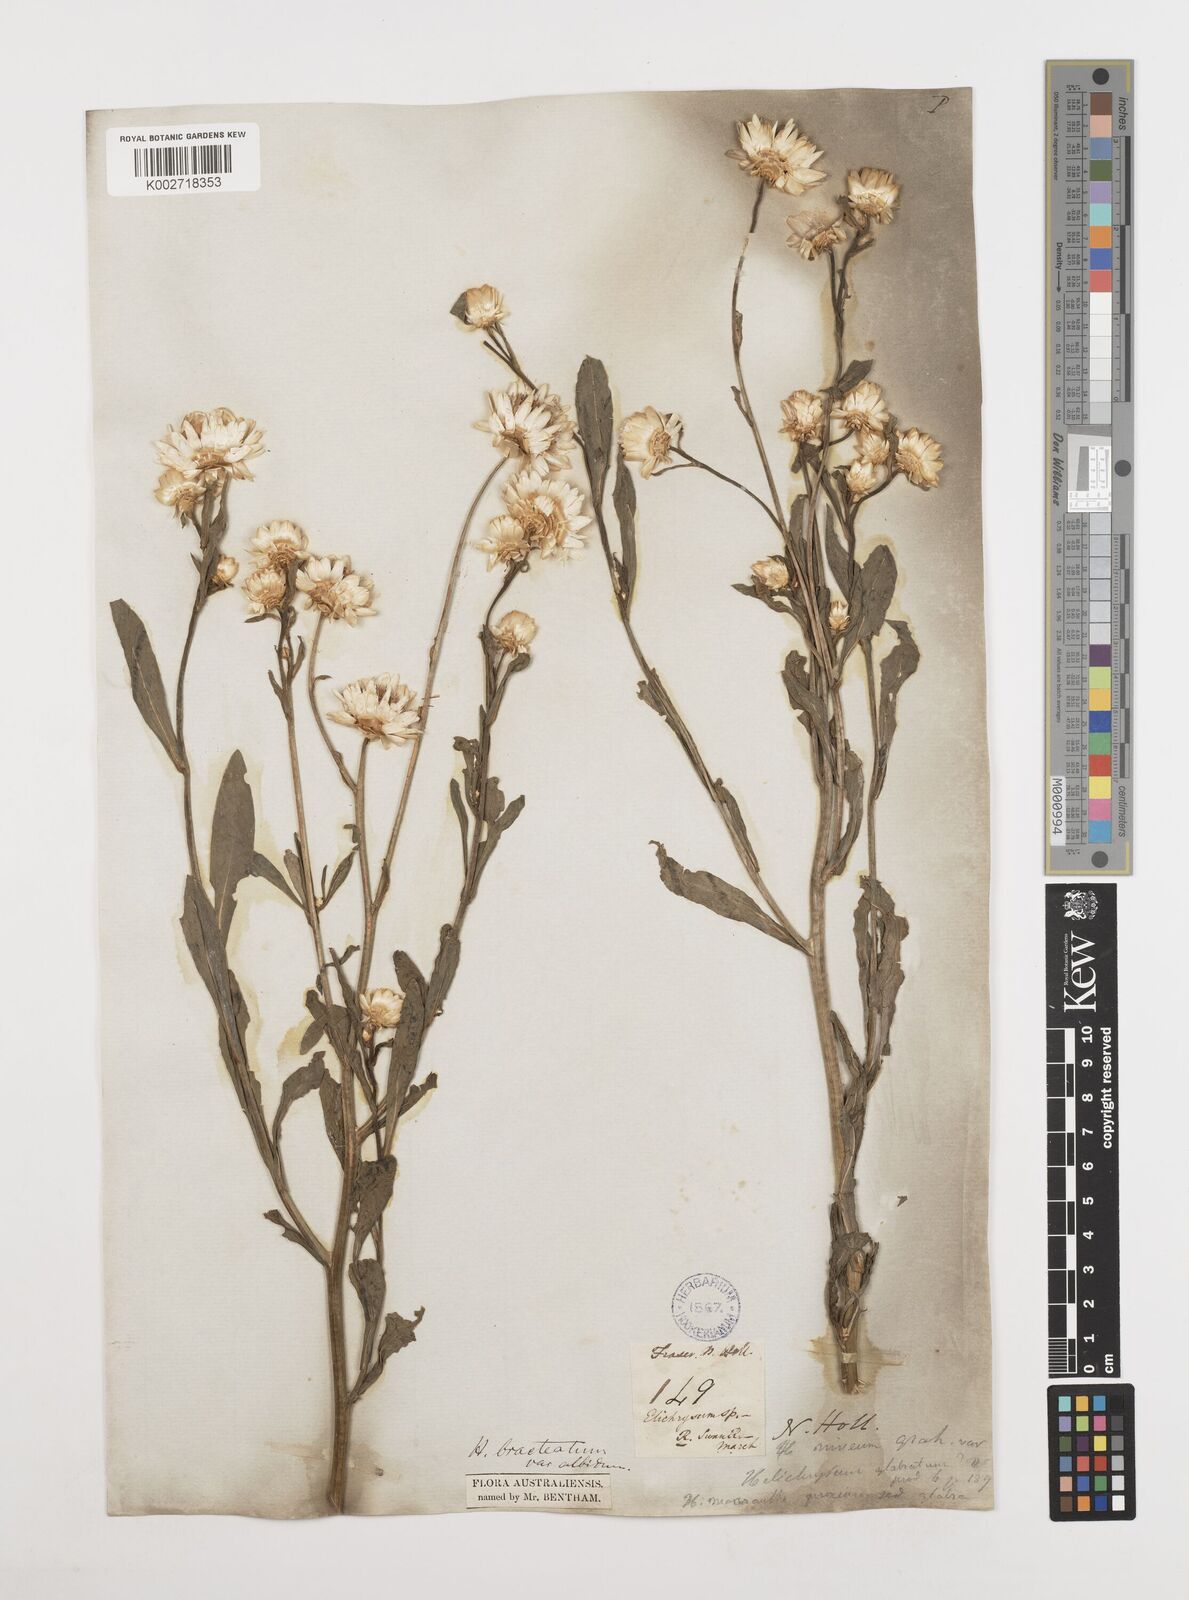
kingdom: Plantae
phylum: Tracheophyta
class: Magnoliopsida
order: Asterales
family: Asteraceae
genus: Xerochrysum
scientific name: Xerochrysum bracteatum
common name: Bracted strawflower
